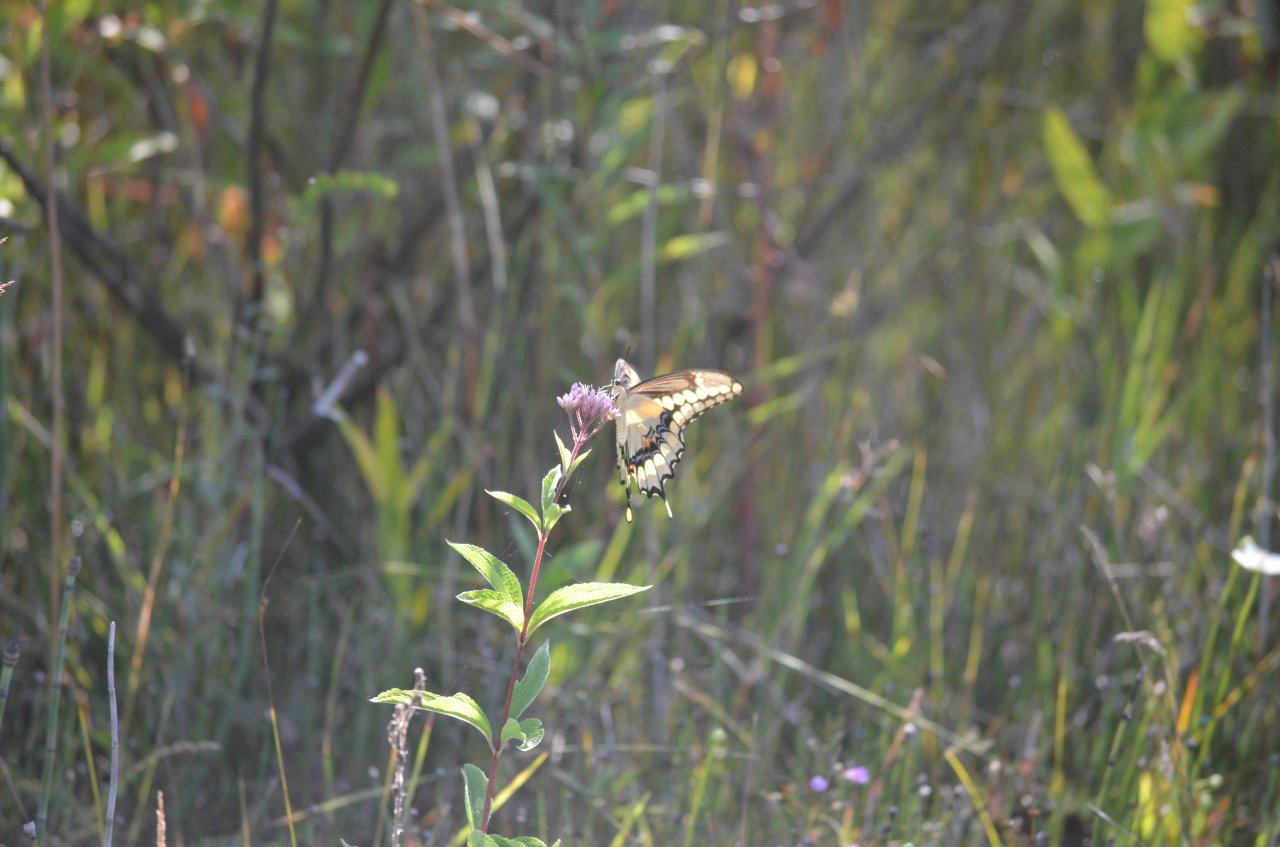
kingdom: Animalia
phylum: Arthropoda
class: Insecta
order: Lepidoptera
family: Papilionidae
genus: Papilio
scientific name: Papilio cresphontes
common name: Eastern Giant Swallowtail
